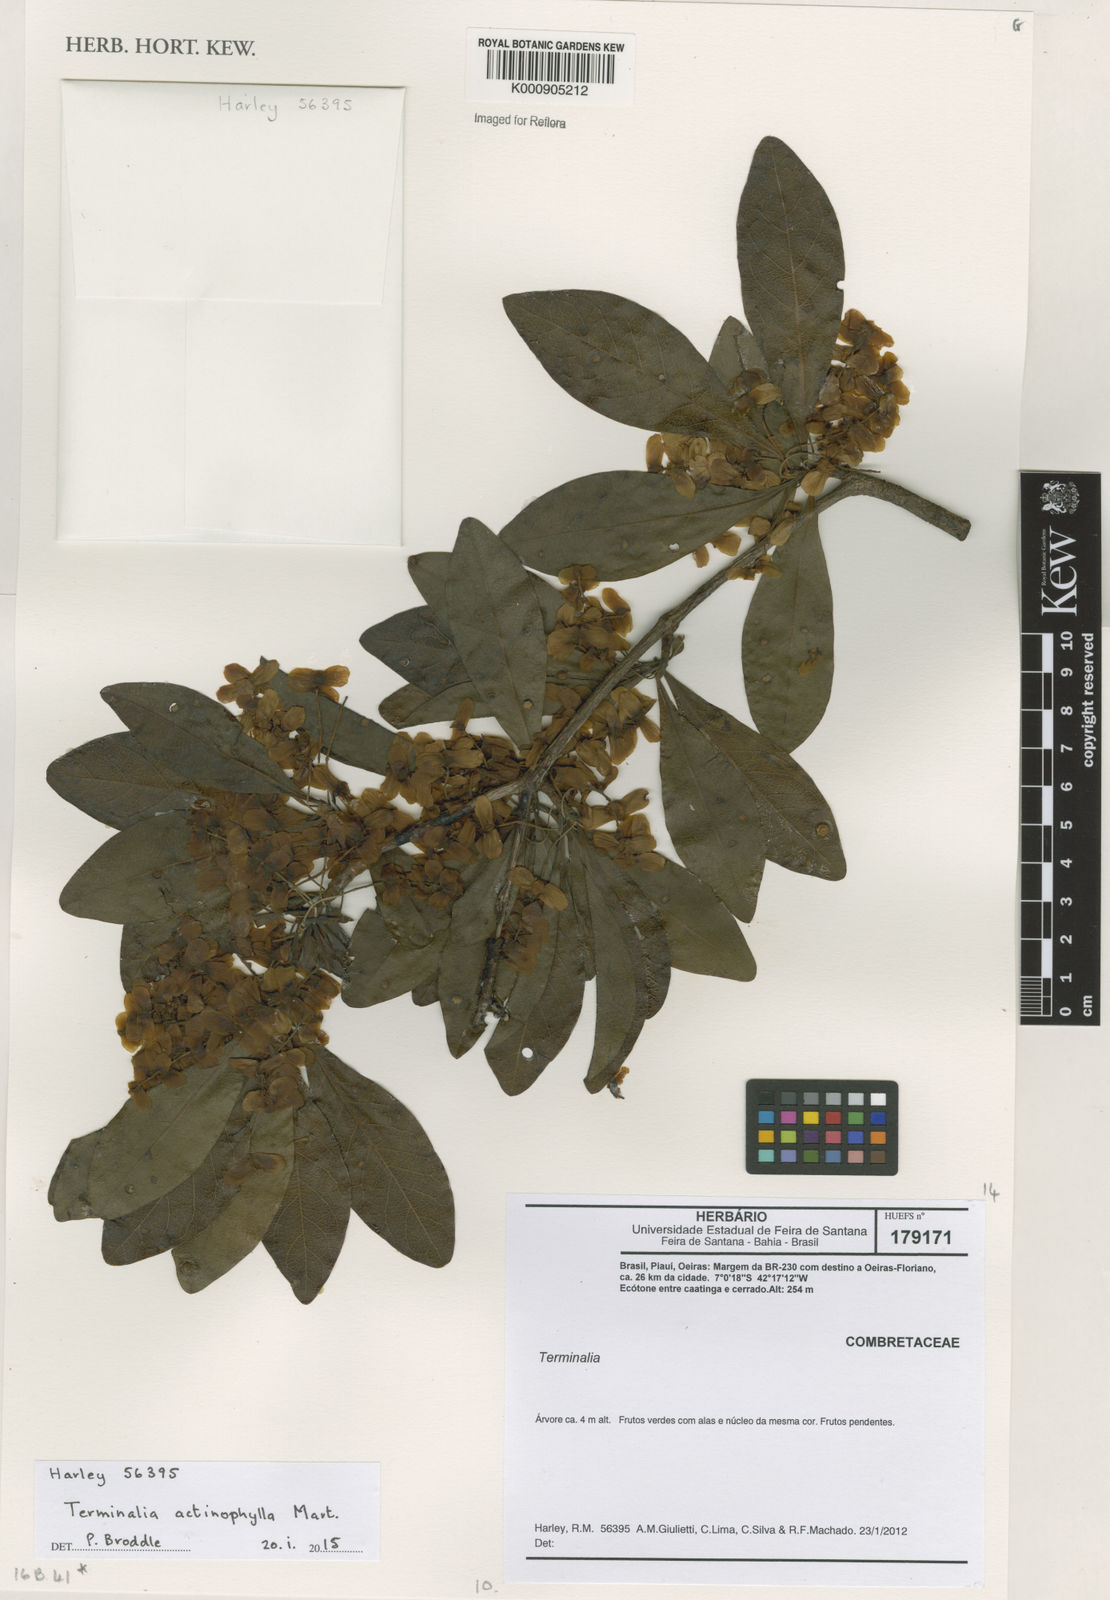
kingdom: Plantae
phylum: Tracheophyta
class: Magnoliopsida
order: Myrtales
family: Combretaceae
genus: Terminalia
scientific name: Terminalia actinophylla
